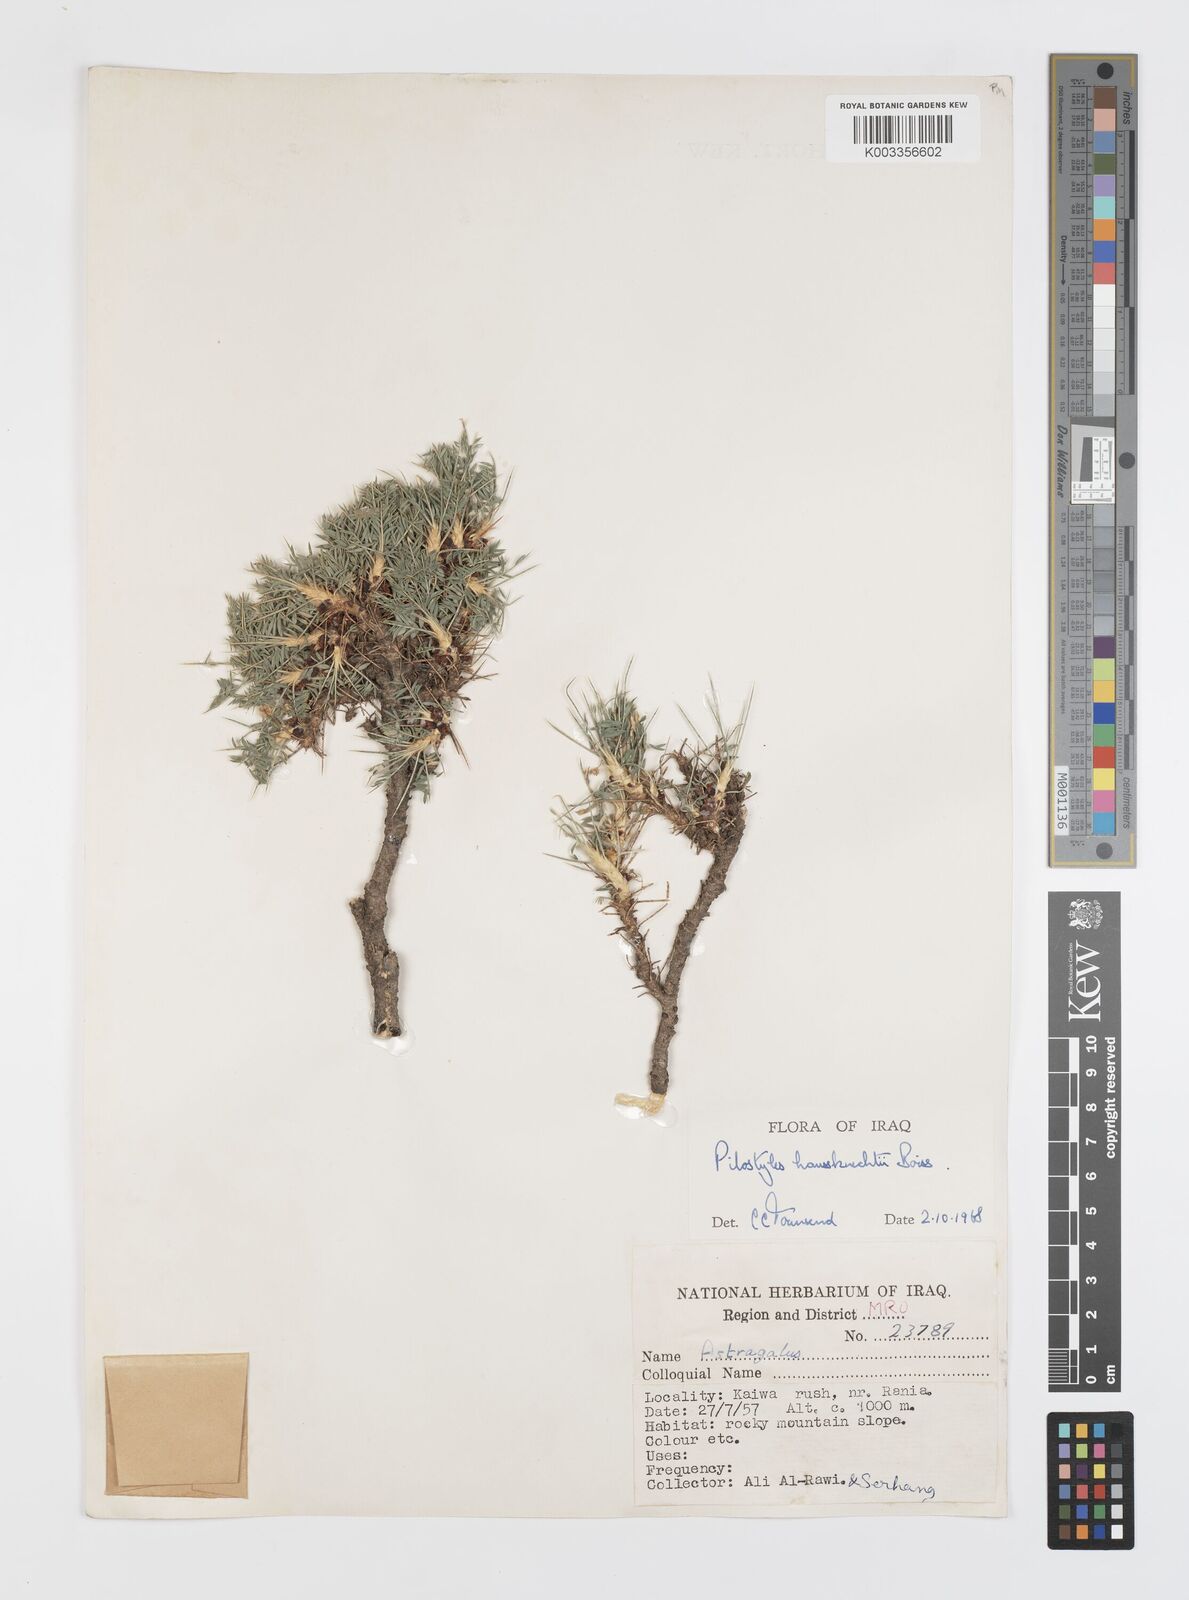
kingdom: Plantae
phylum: Tracheophyta
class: Magnoliopsida
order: Cucurbitales
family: Apodanthaceae
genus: Pilostyles
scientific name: Pilostyles haussknechtii
